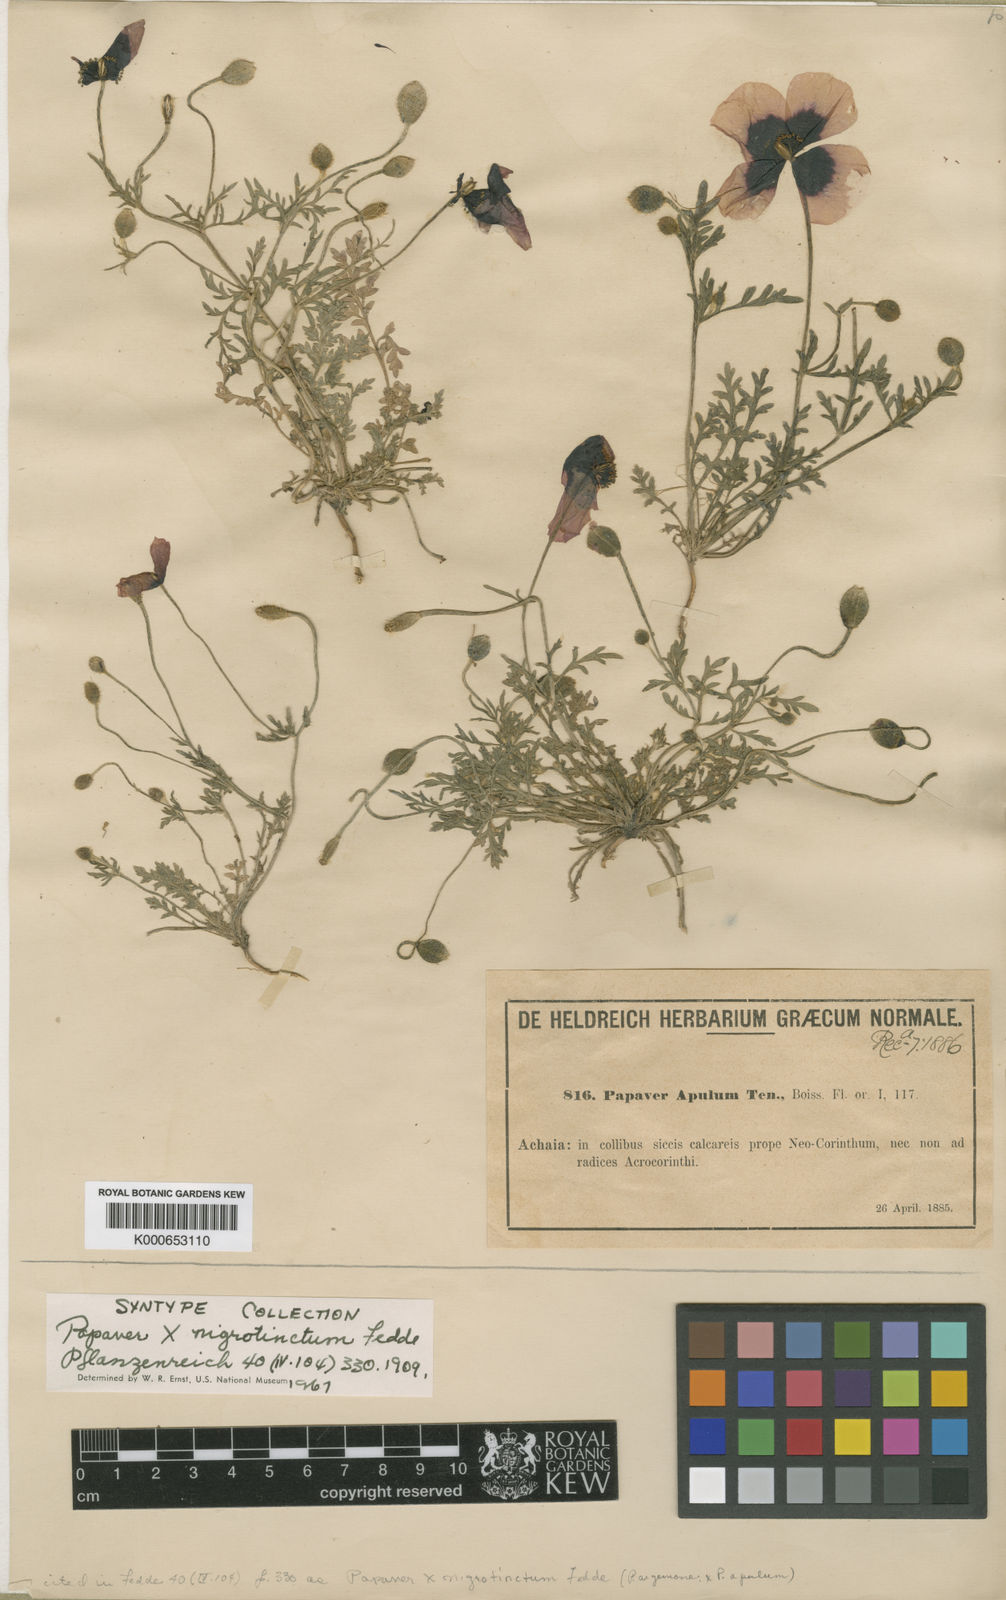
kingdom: Plantae
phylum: Tracheophyta
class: Magnoliopsida
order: Ranunculales
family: Papaveraceae
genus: Roemeria
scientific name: Roemeria nigrotincta
